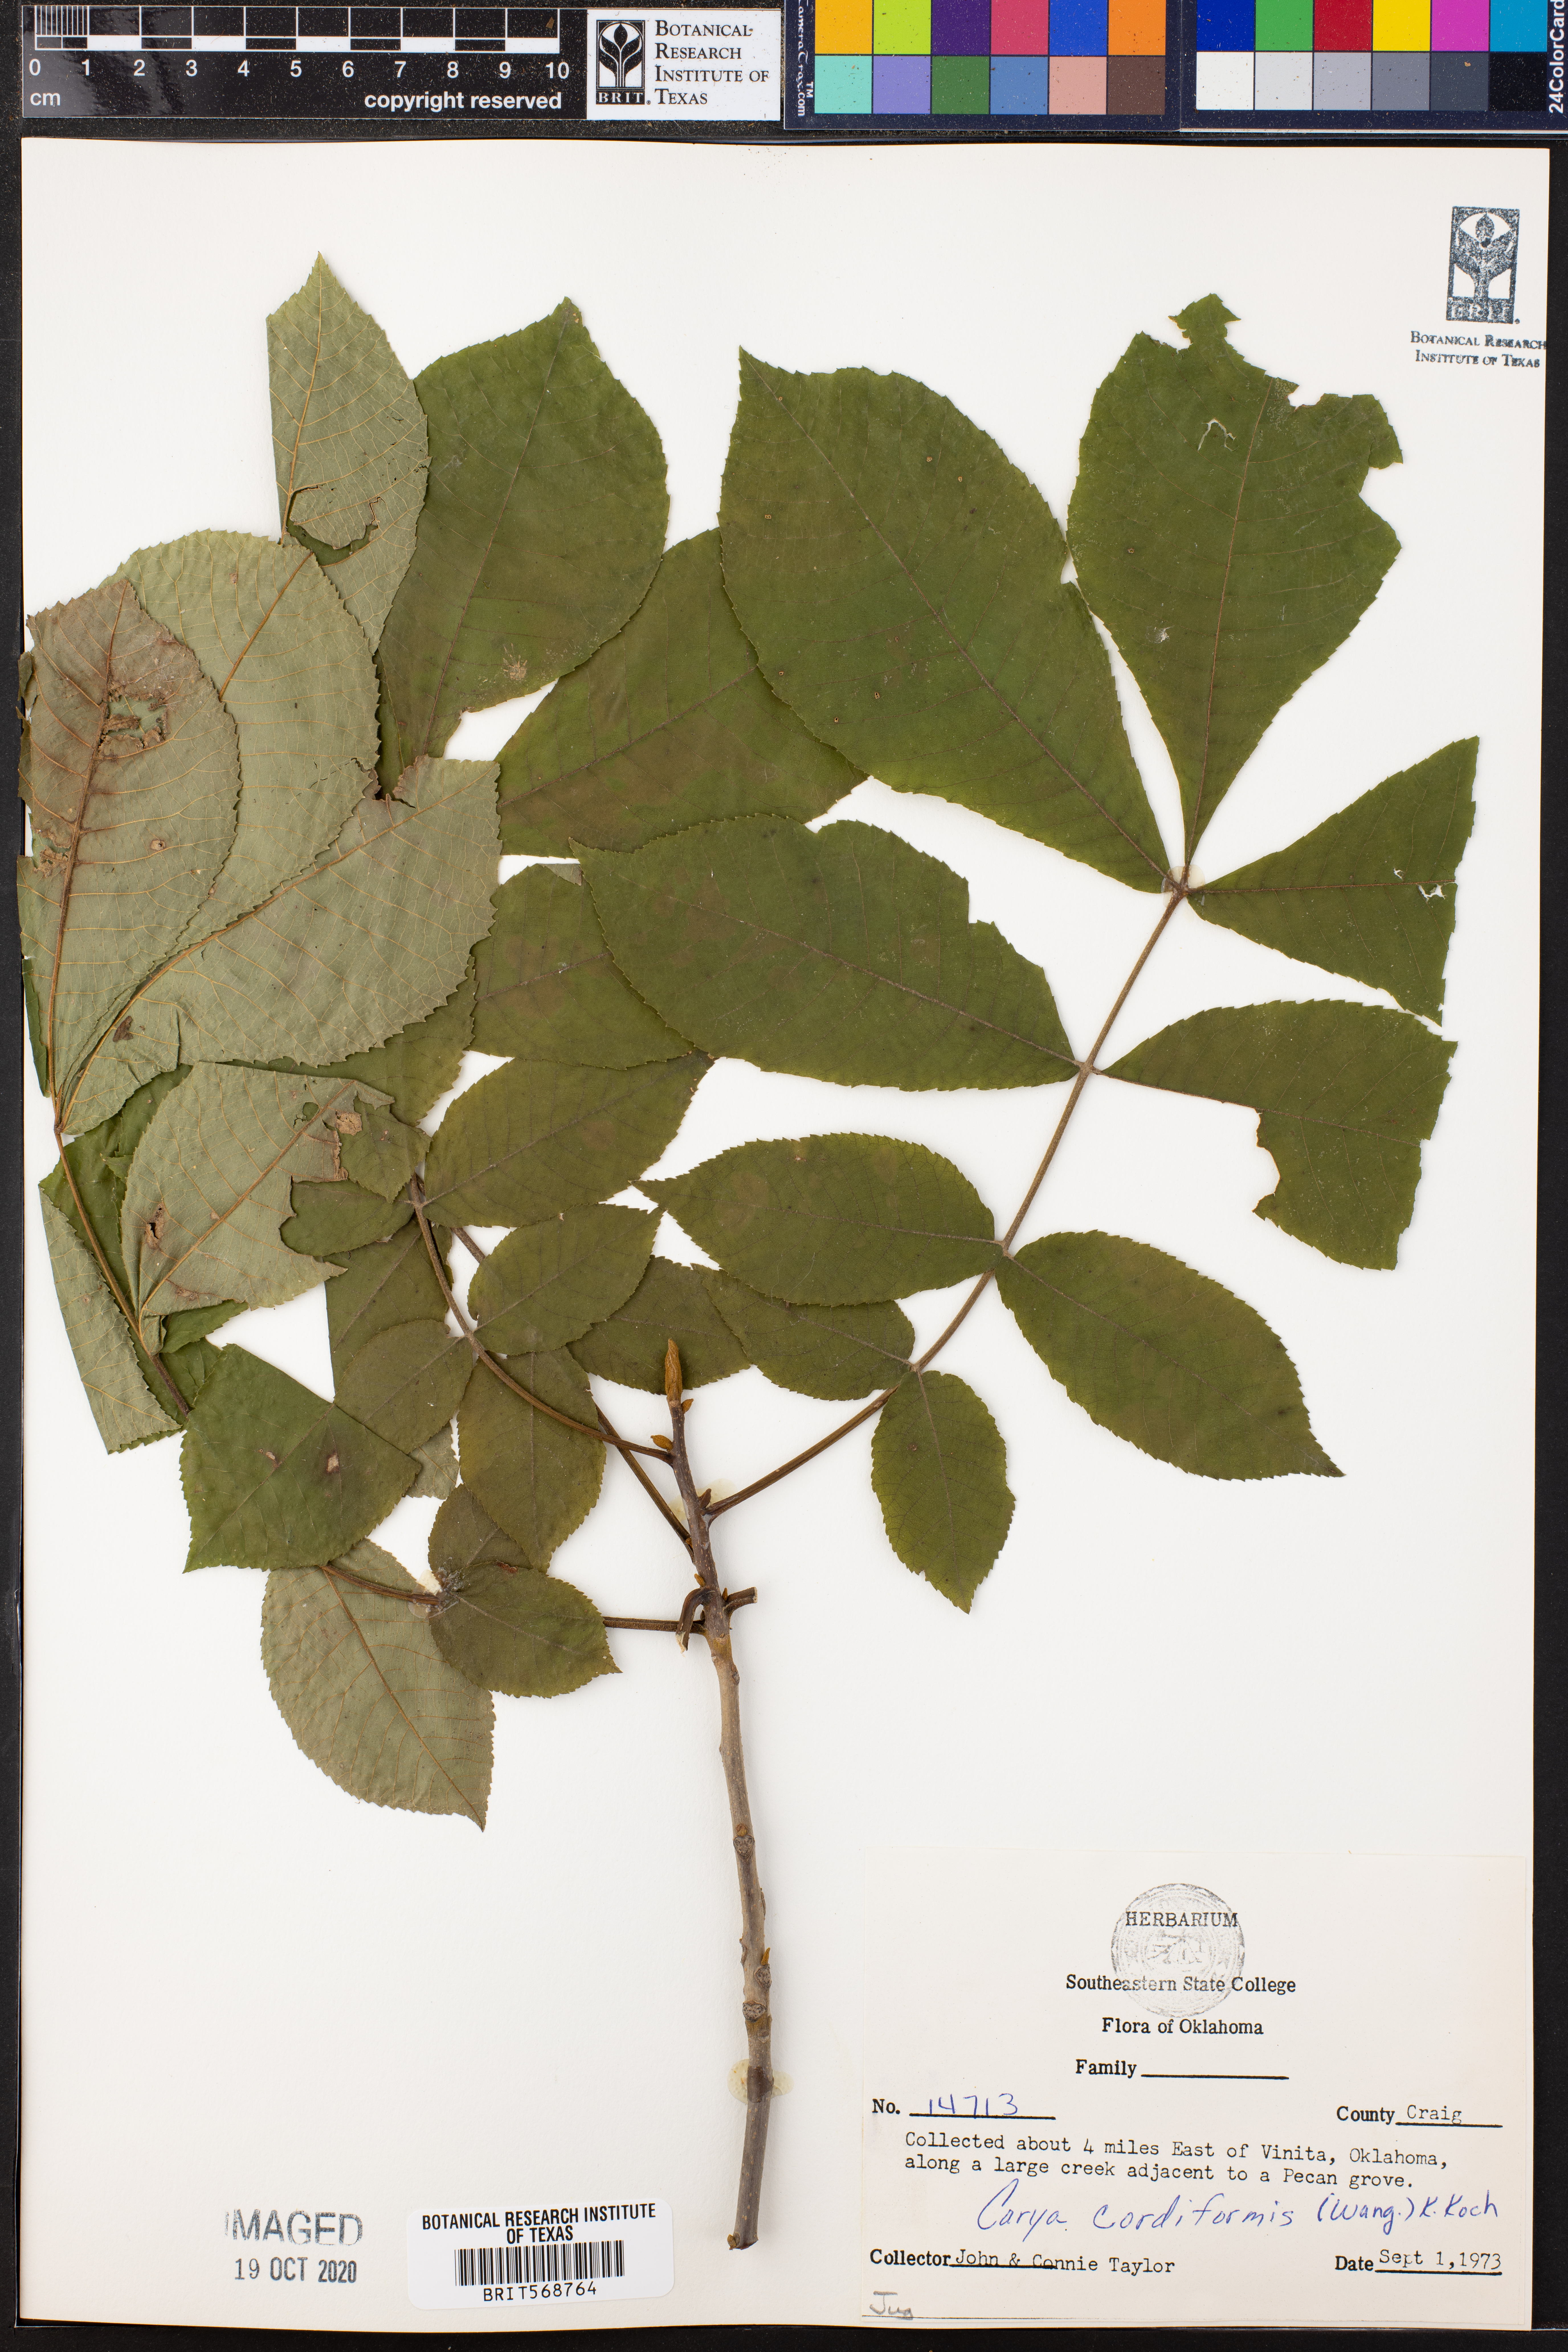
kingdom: Plantae
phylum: Tracheophyta
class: Magnoliopsida
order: Fagales
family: Juglandaceae
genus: Carya
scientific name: Carya cordiformis
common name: Bitternut hickory
